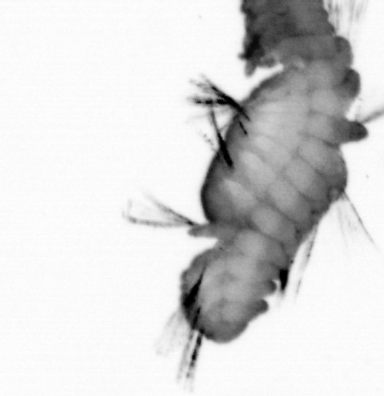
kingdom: Animalia
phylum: Annelida
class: Polychaeta
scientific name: Polychaeta
